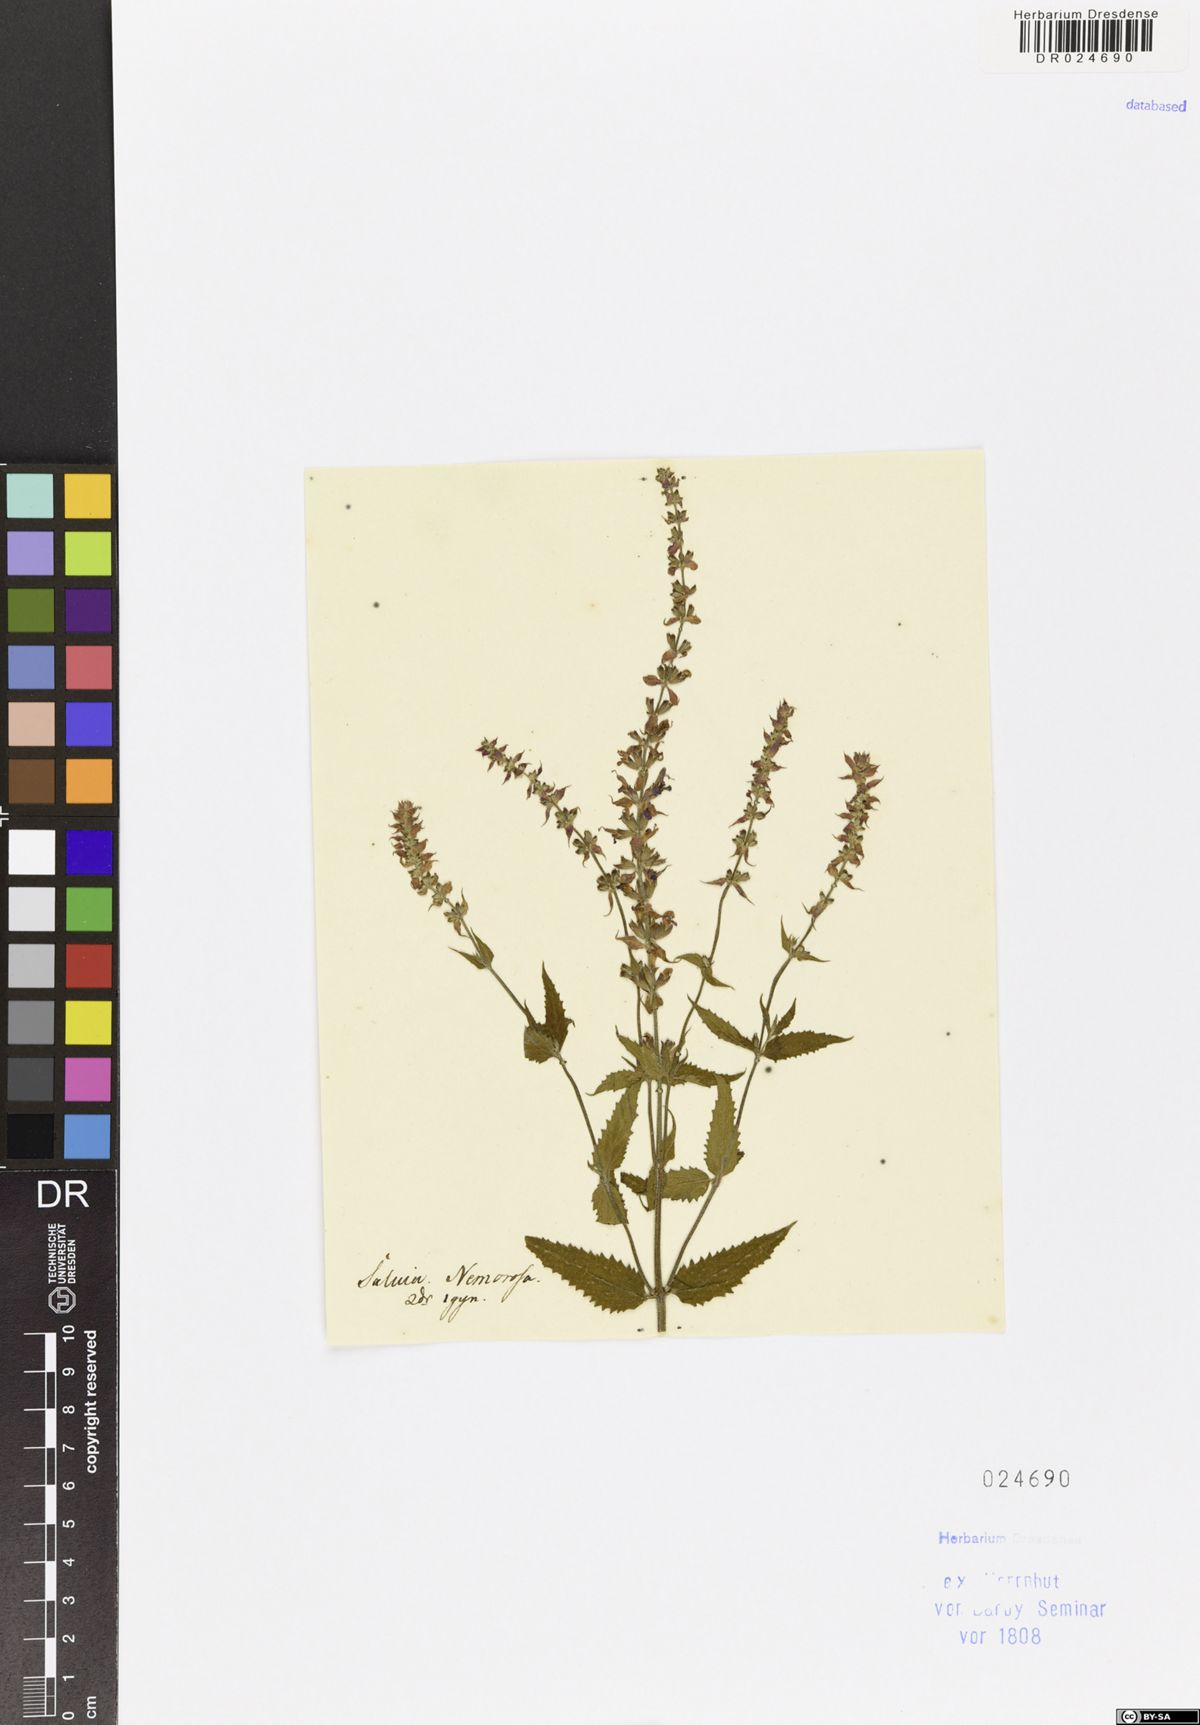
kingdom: Plantae
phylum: Tracheophyta
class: Magnoliopsida
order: Lamiales
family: Lamiaceae
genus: Salvia
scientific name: Salvia nemorosa
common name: Balkan clary
